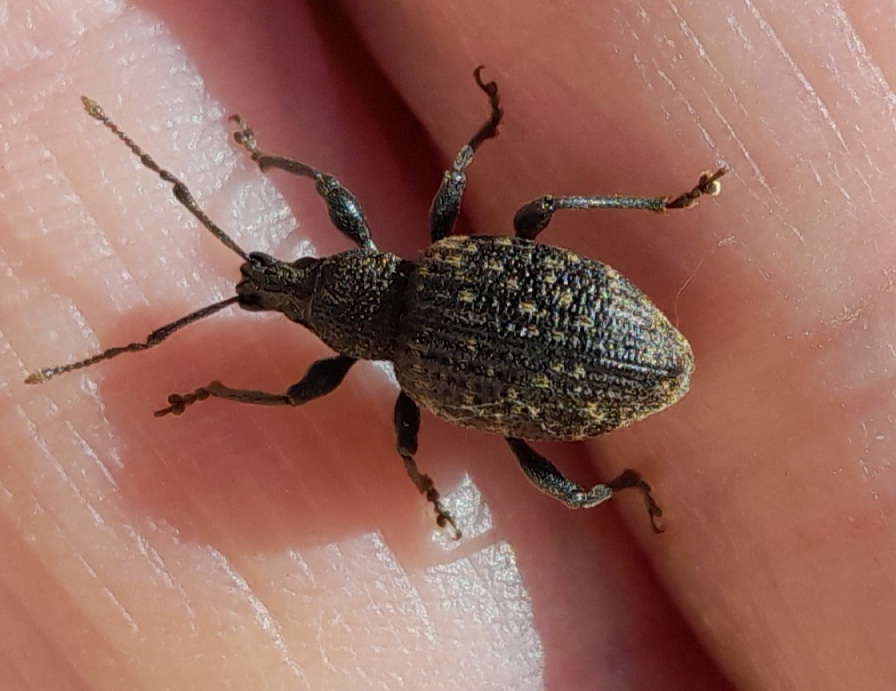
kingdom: Animalia
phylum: Arthropoda
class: Insecta
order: Coleoptera
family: Curculionidae
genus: Otiorhynchus
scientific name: Otiorhynchus sulcatus
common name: Væksthussnudebille
